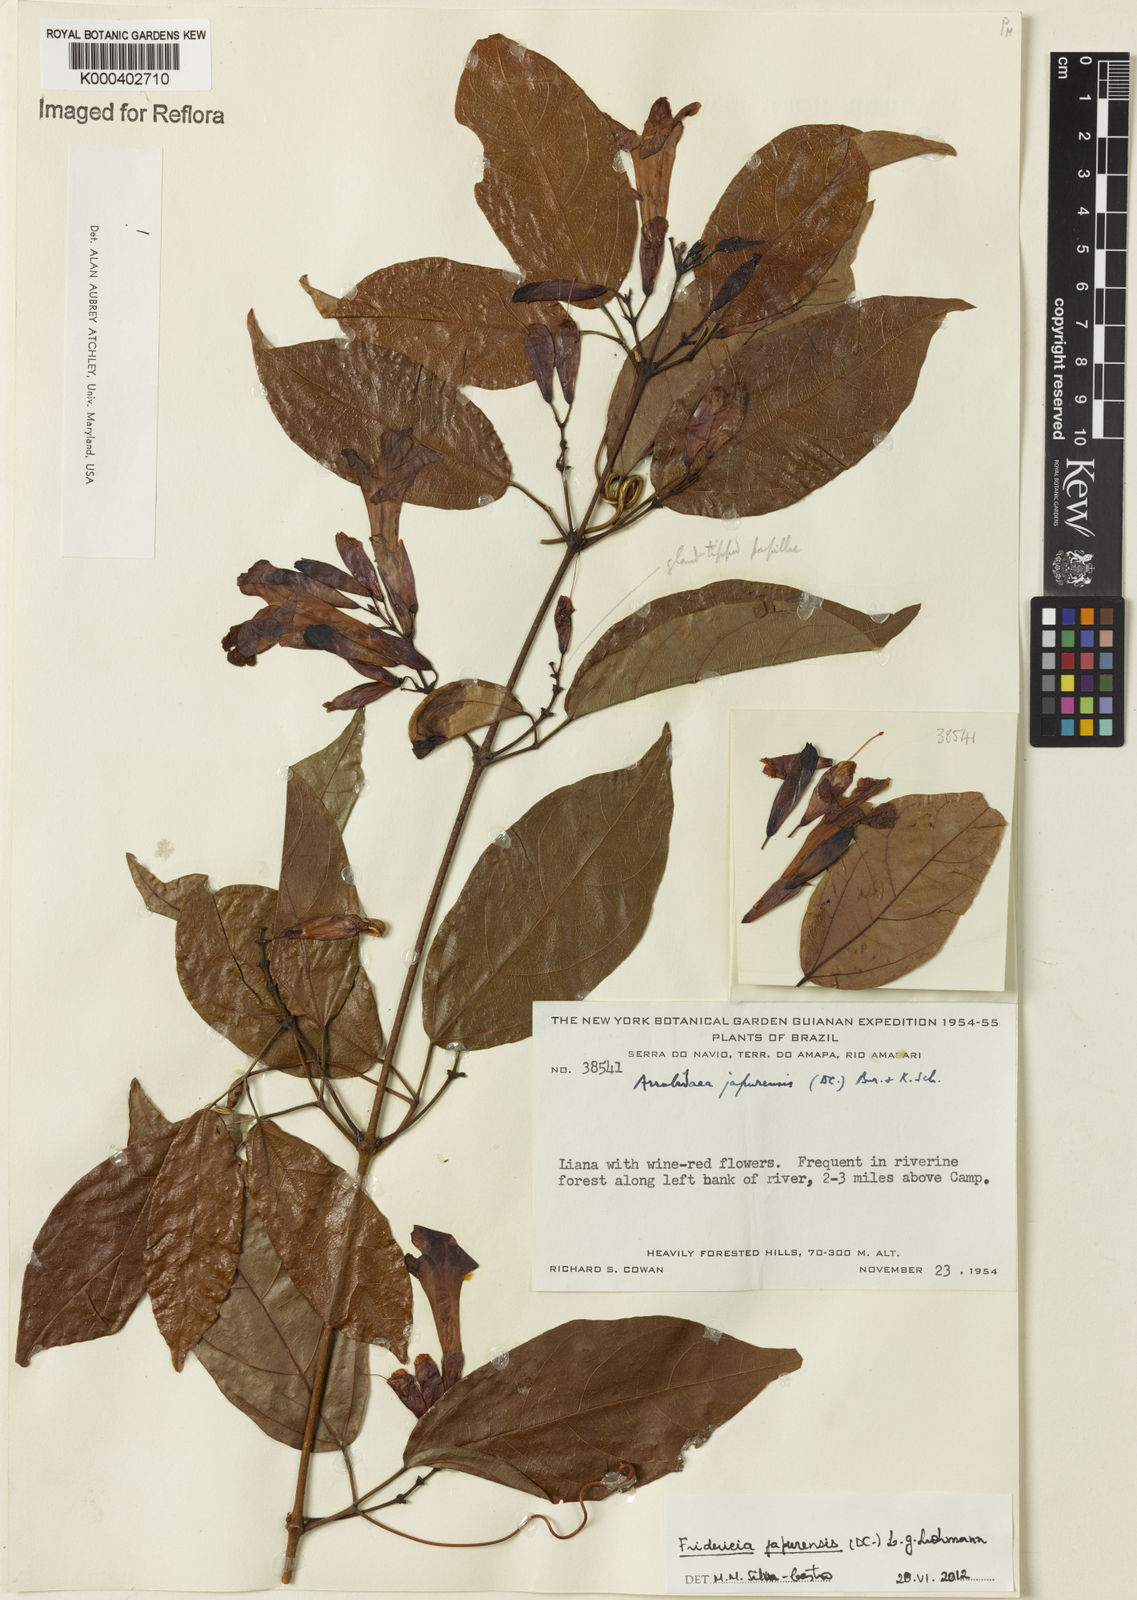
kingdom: Plantae
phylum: Tracheophyta
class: Magnoliopsida
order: Lamiales
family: Bignoniaceae
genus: Fridericia
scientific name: Fridericia japurensis
